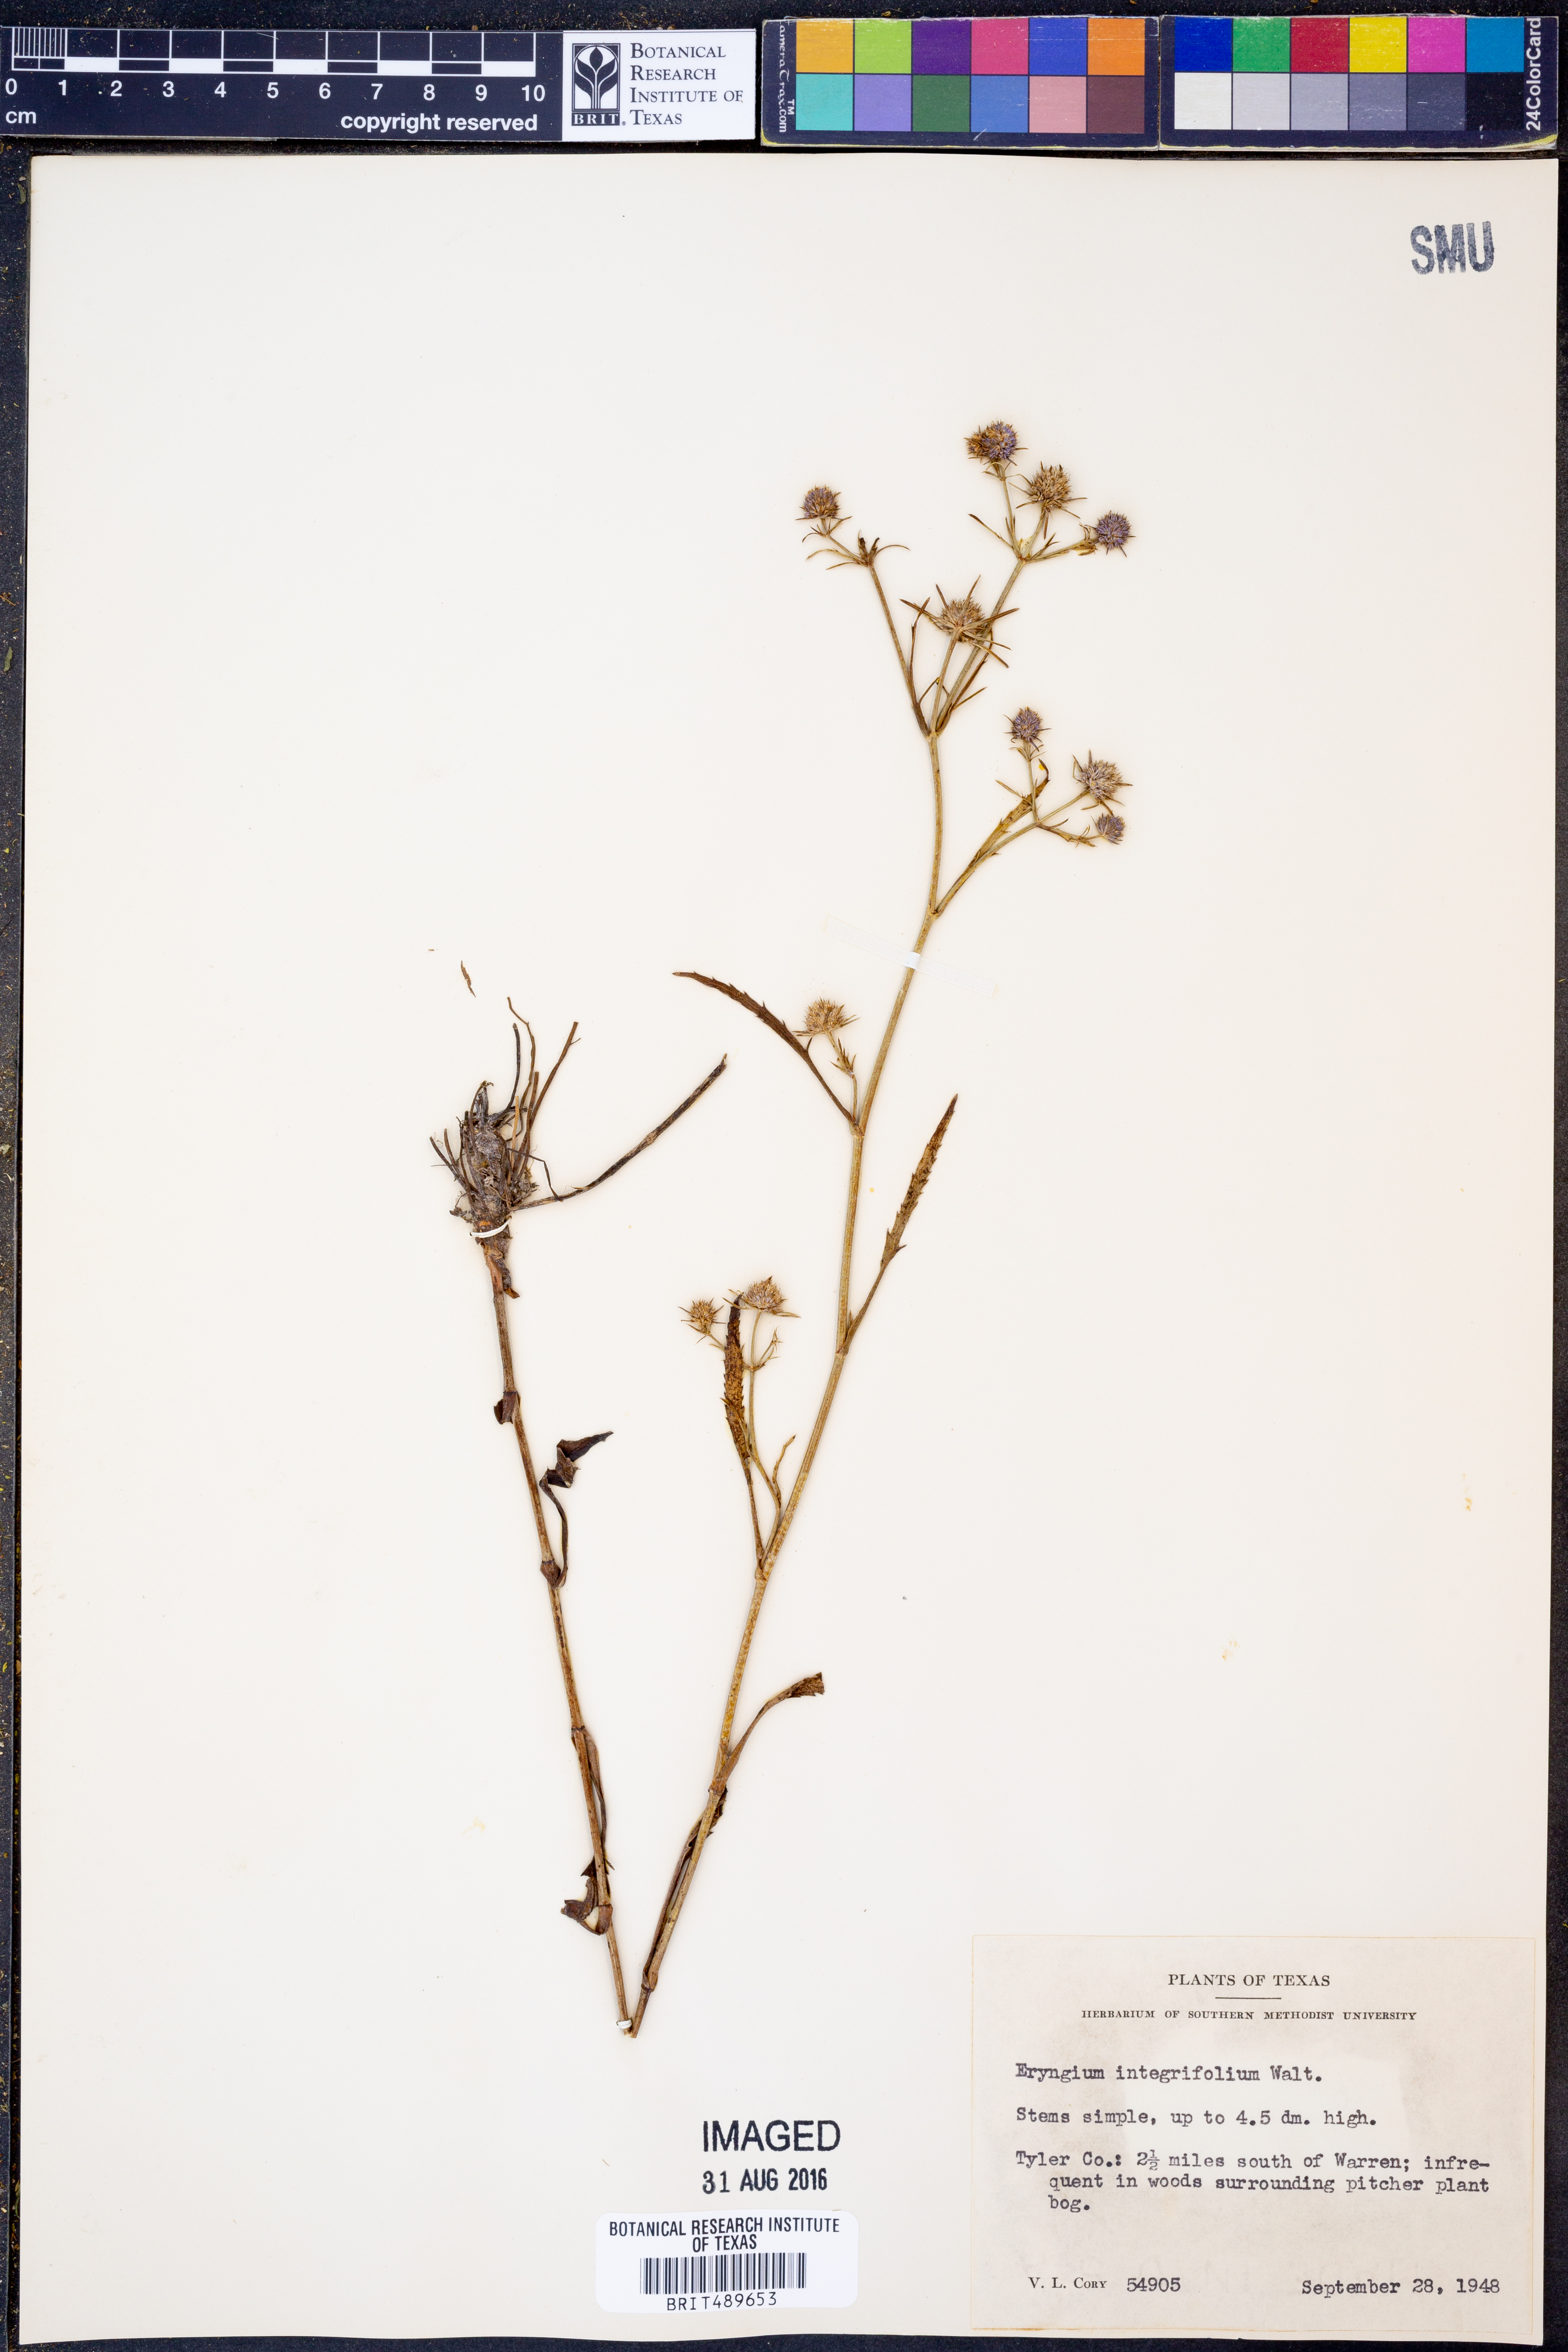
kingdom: Plantae
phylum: Tracheophyta
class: Magnoliopsida
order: Apiales
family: Apiaceae
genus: Eryngium
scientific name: Eryngium integrifolium
